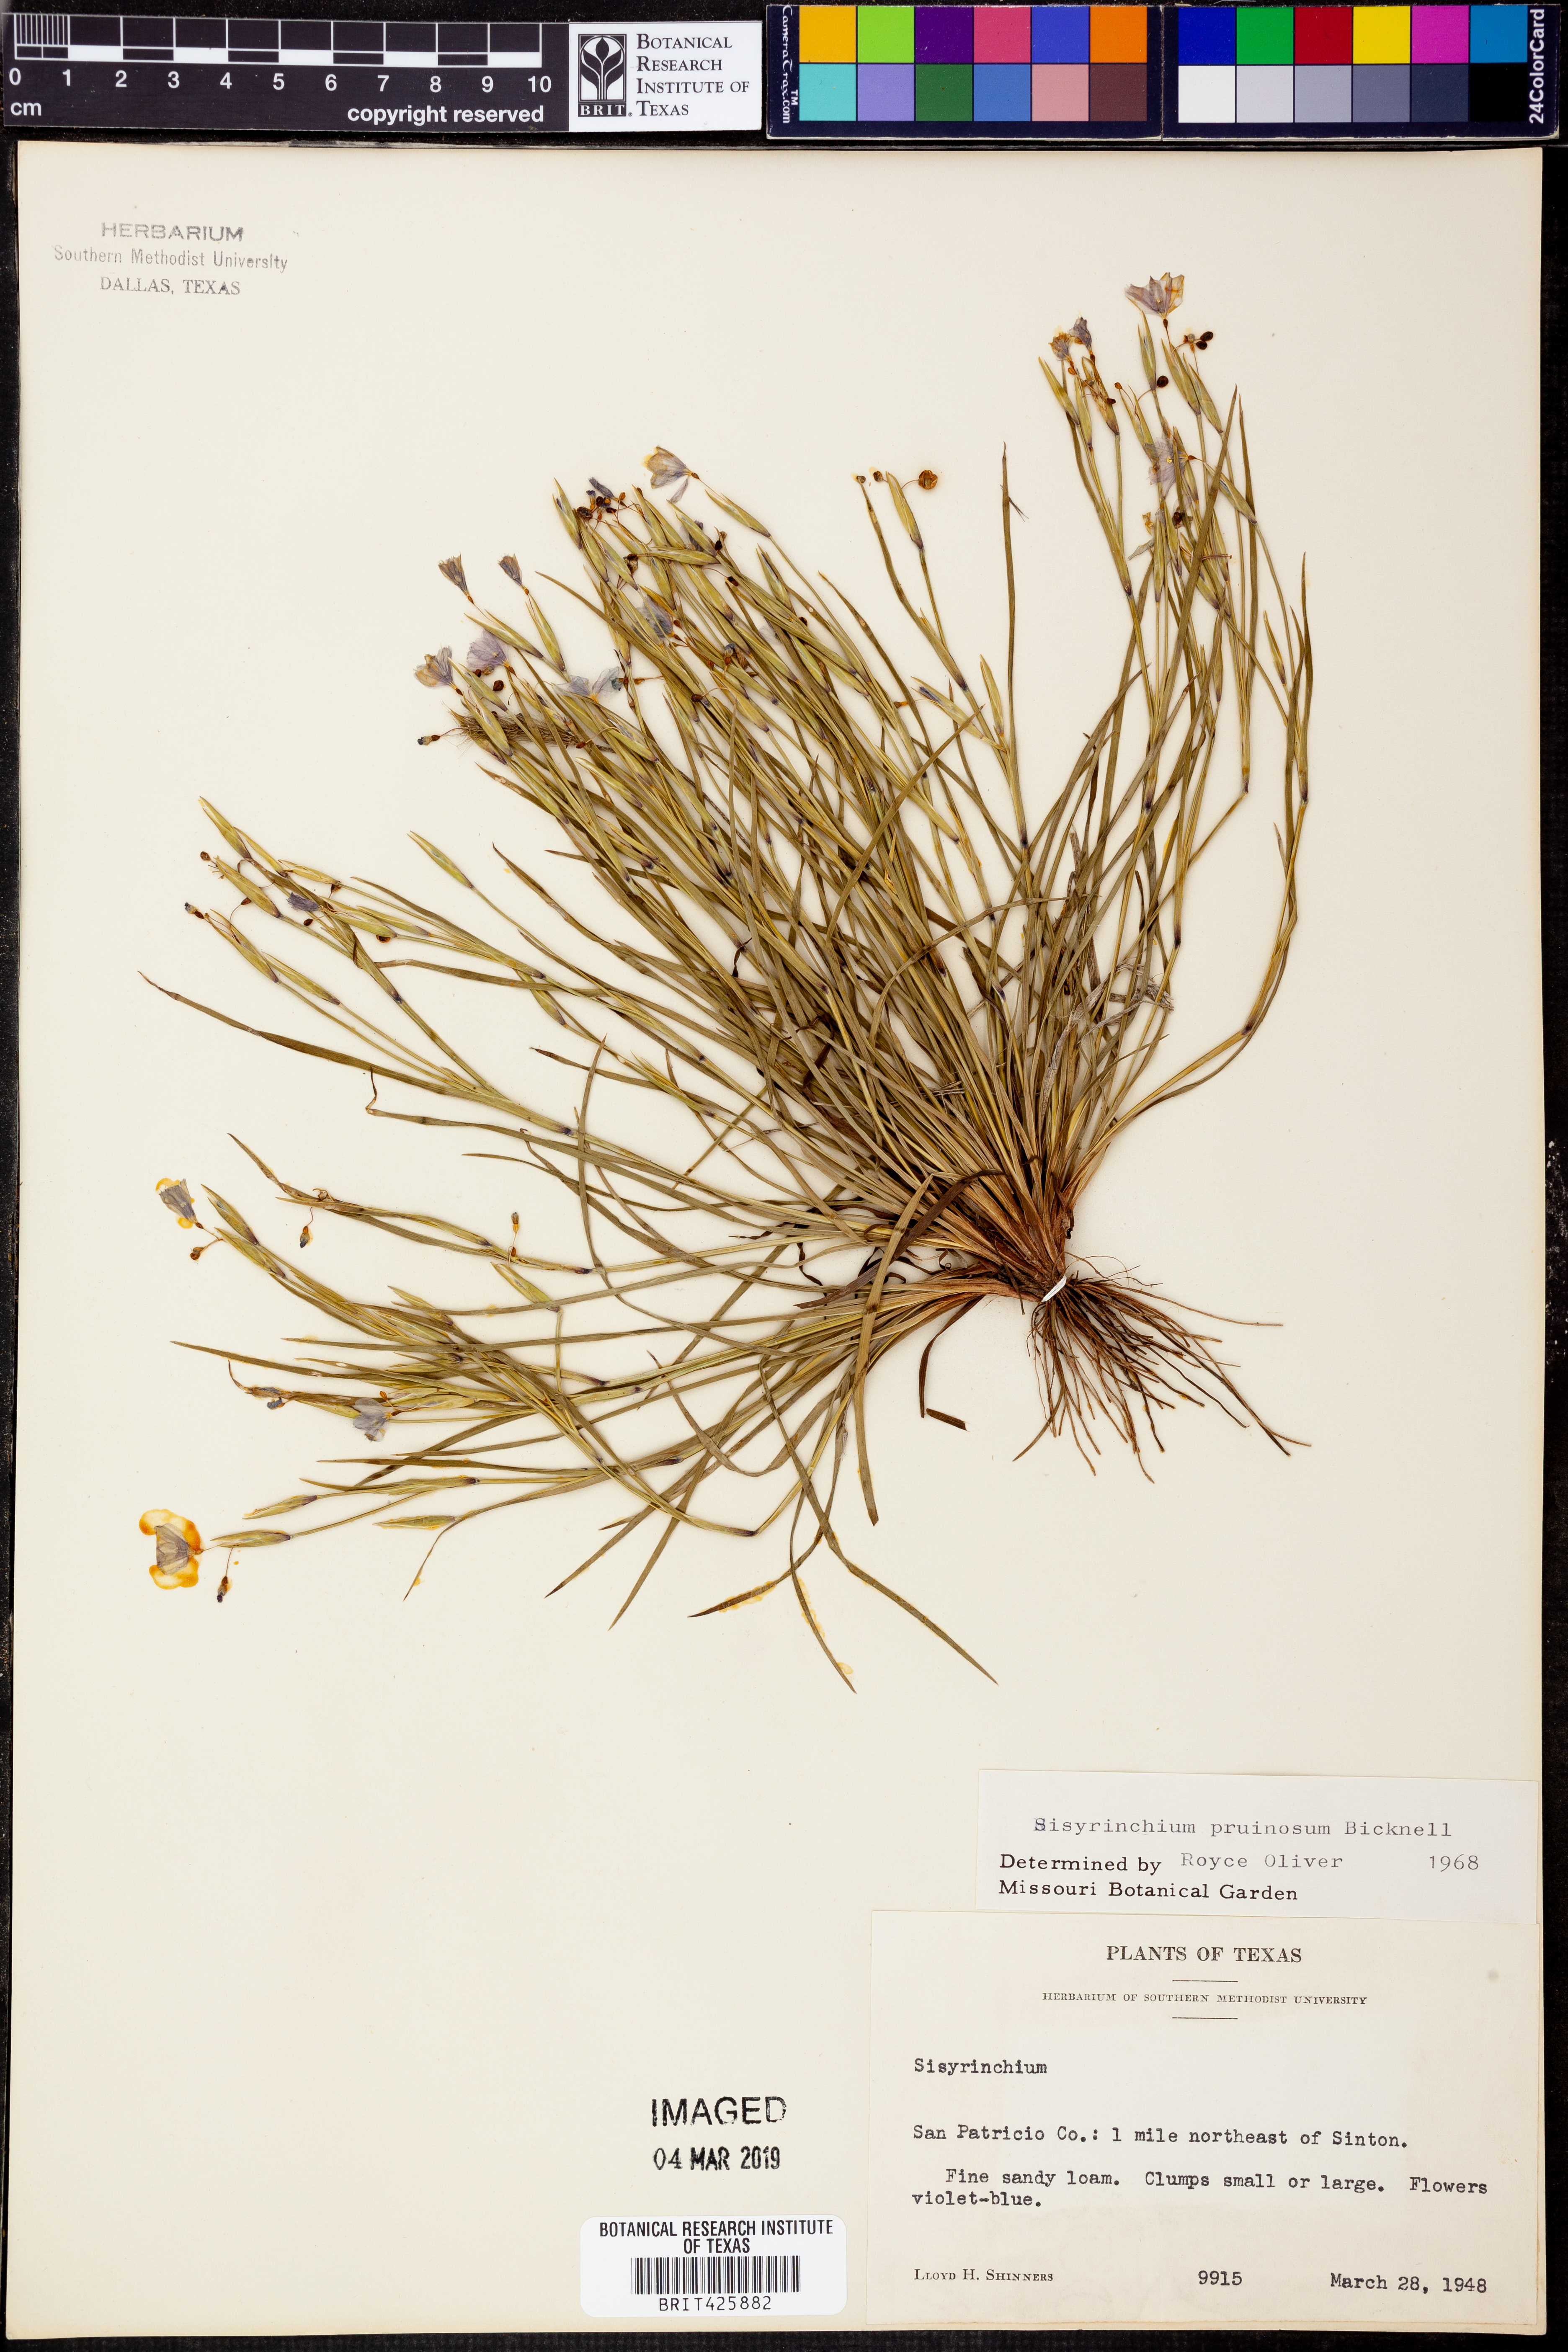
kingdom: Plantae
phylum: Tracheophyta
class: Liliopsida
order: Asparagales
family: Iridaceae
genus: Sisyrinchium
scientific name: Sisyrinchium pruinosum
